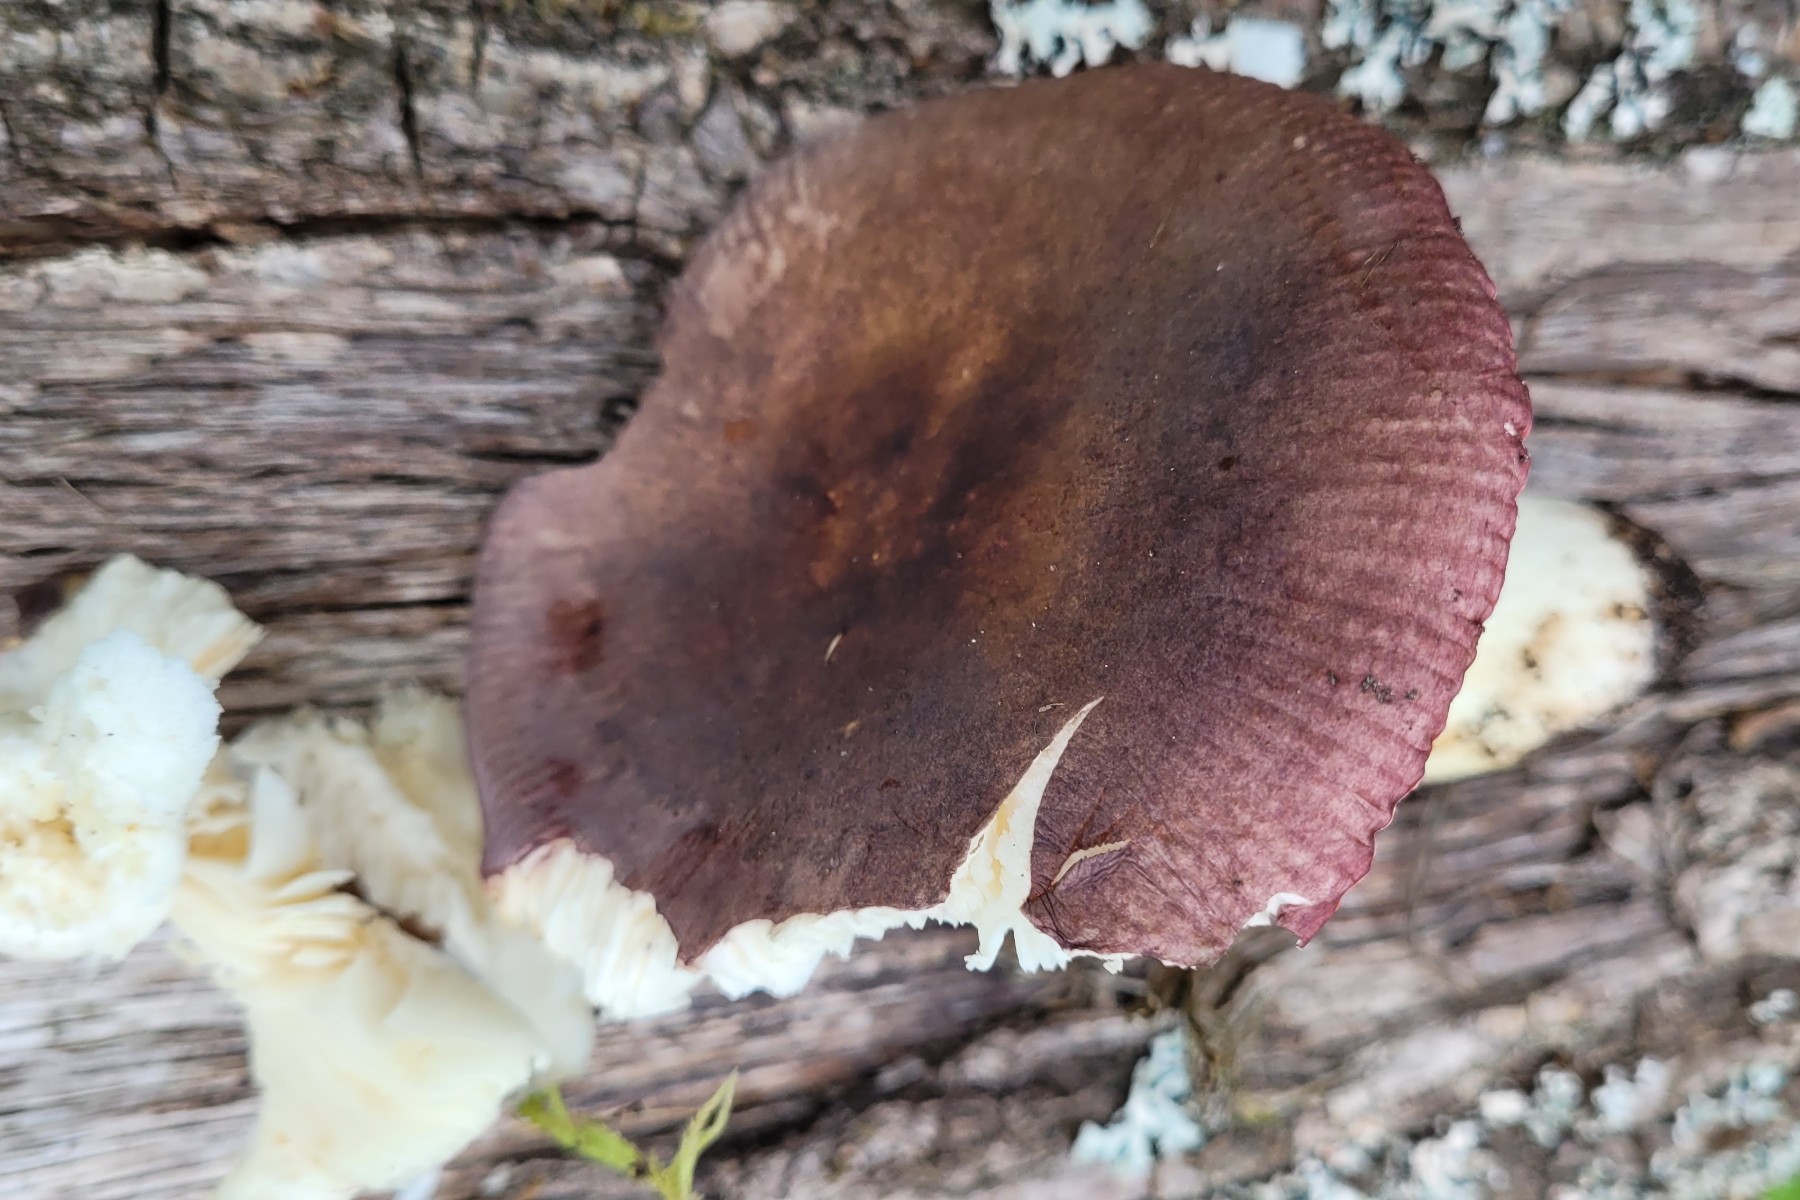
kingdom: Fungi
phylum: Basidiomycota
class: Agaricomycetes
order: Russulales
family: Russulaceae
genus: Russula
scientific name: Russula brunneoviolacea
